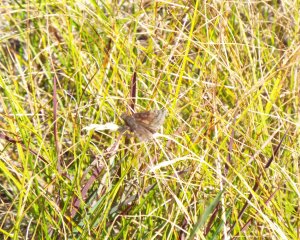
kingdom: Animalia
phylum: Arthropoda
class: Insecta
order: Lepidoptera
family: Hesperiidae
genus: Gesta
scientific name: Gesta
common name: Wild Indigo Duskywing
